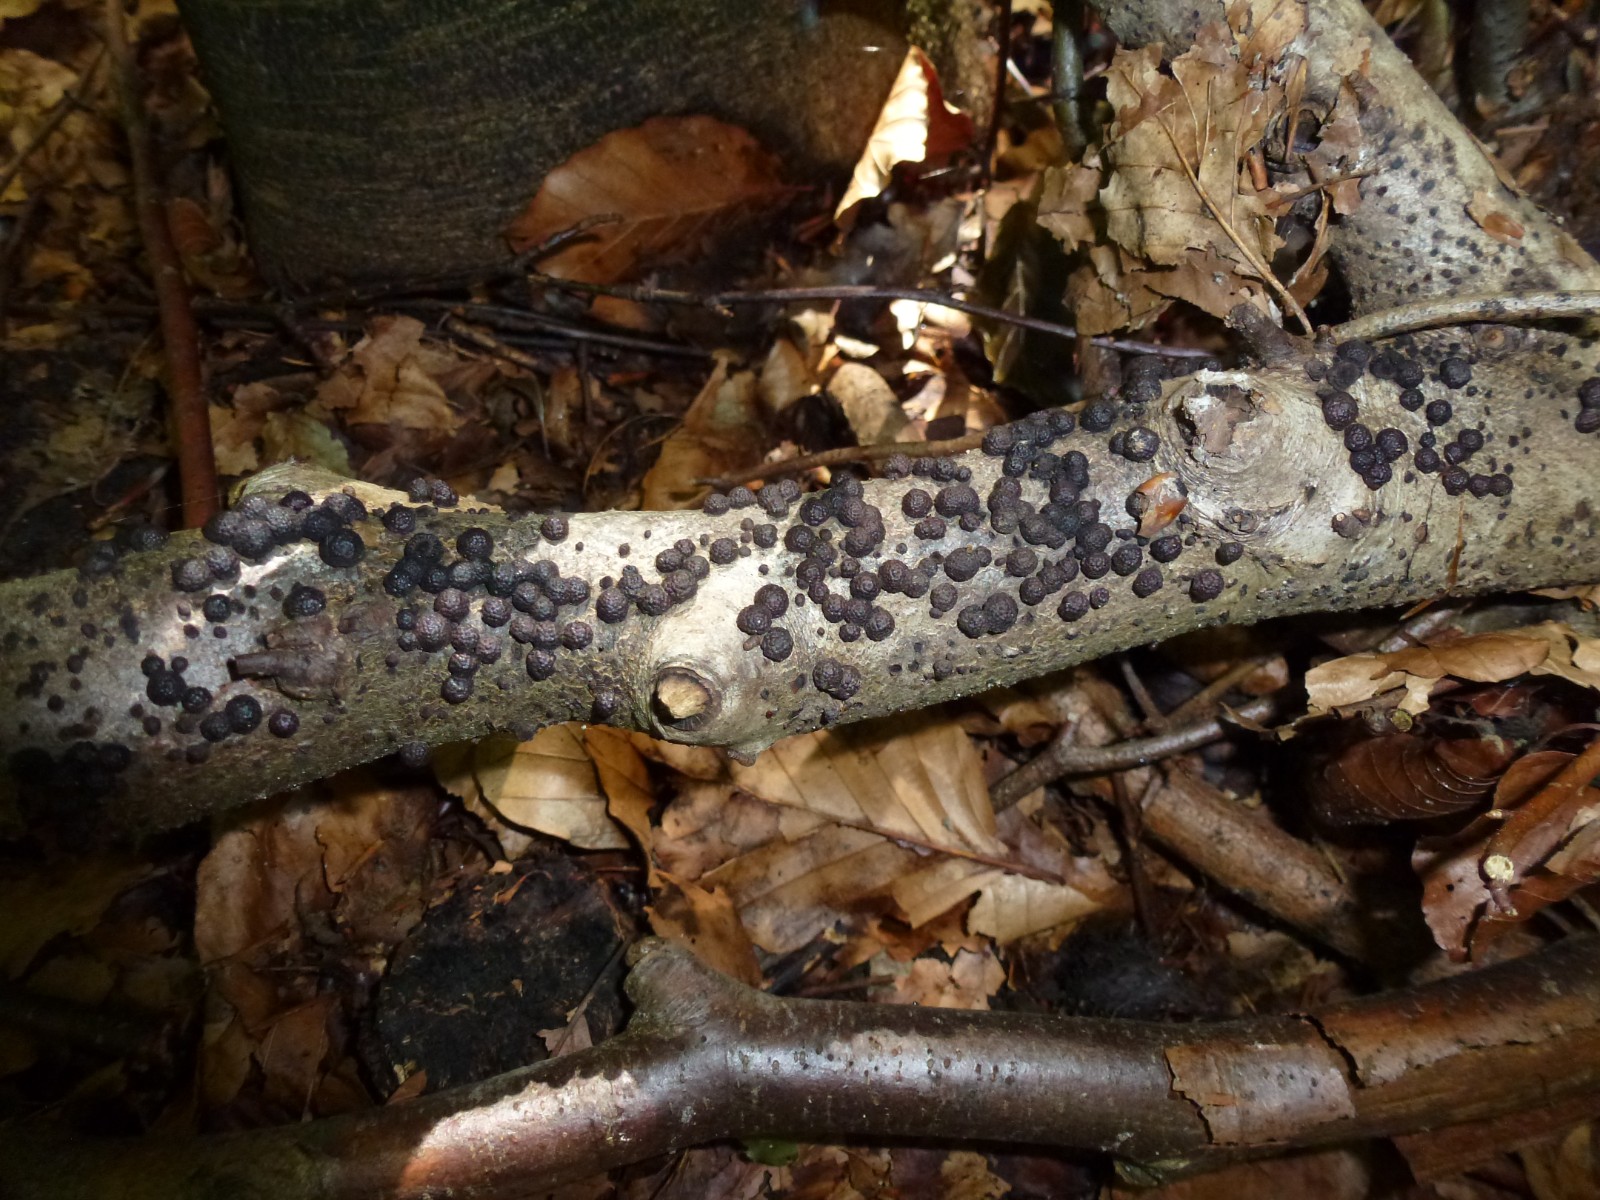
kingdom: Fungi
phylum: Ascomycota
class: Sordariomycetes
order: Xylariales
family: Hypoxylaceae
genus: Hypoxylon
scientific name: Hypoxylon
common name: kulbær
